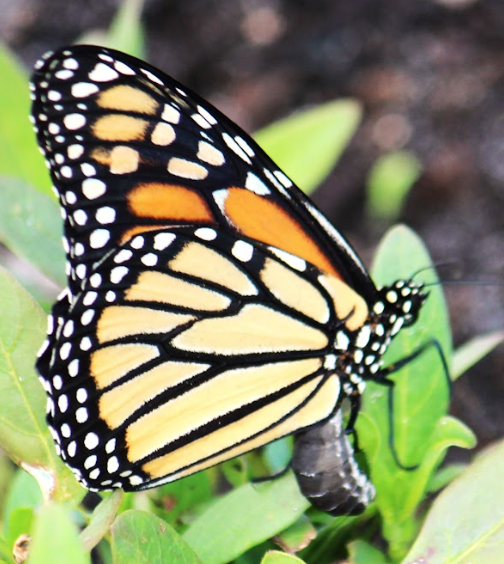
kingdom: Animalia
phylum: Arthropoda
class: Insecta
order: Lepidoptera
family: Nymphalidae
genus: Danaus
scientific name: Danaus plexippus
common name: Monarch
